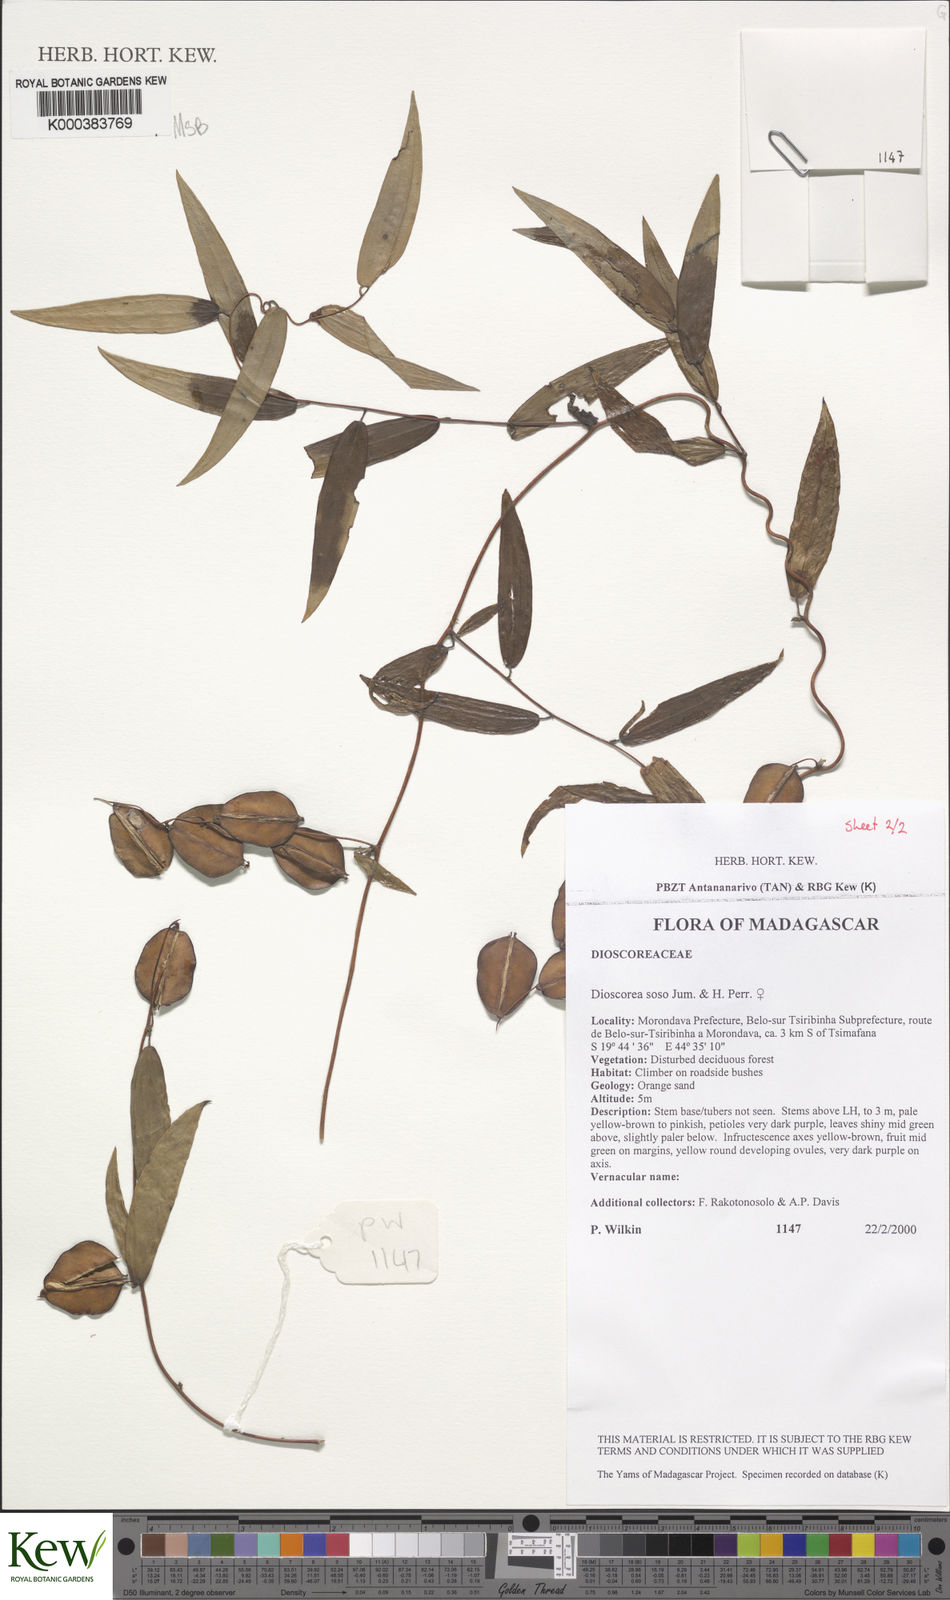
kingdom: Plantae
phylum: Tracheophyta
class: Liliopsida
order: Dioscoreales
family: Dioscoreaceae
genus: Dioscorea
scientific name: Dioscorea
